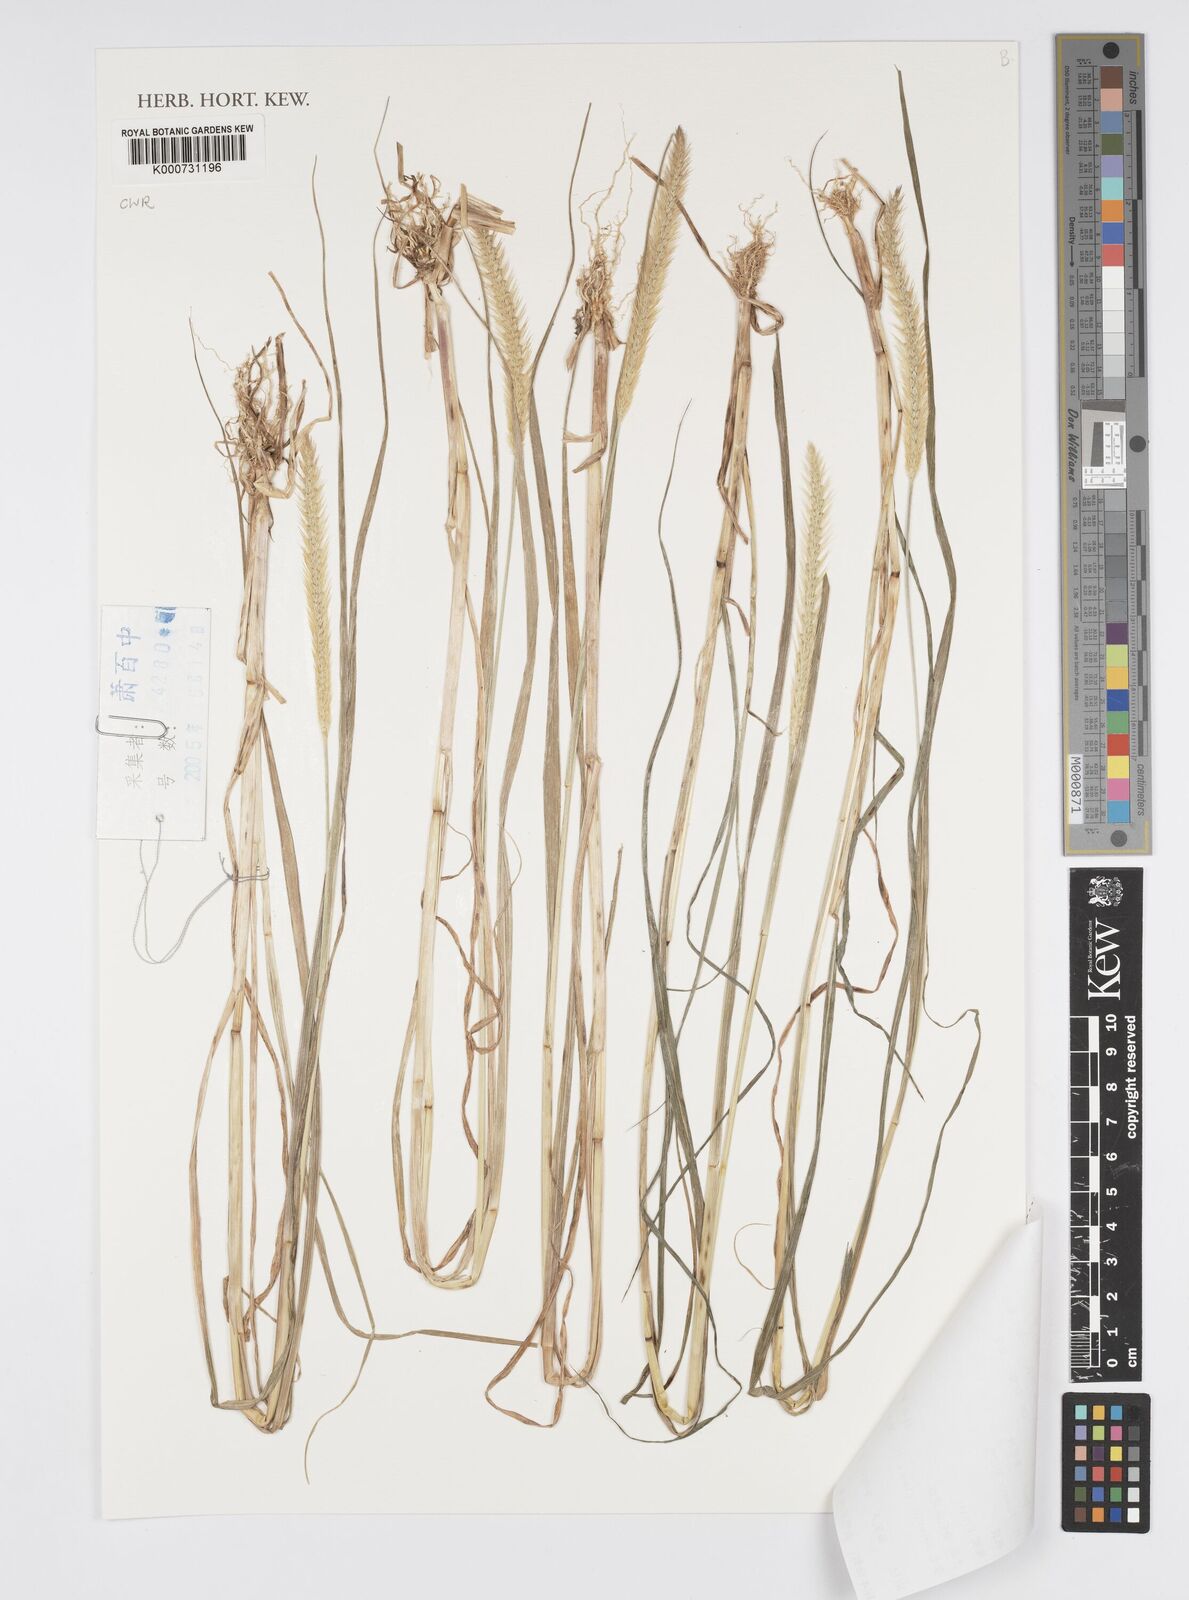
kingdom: Plantae
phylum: Tracheophyta
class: Liliopsida
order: Poales
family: Poaceae
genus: Cenchrus
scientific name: Cenchrus Pennisetum spec
